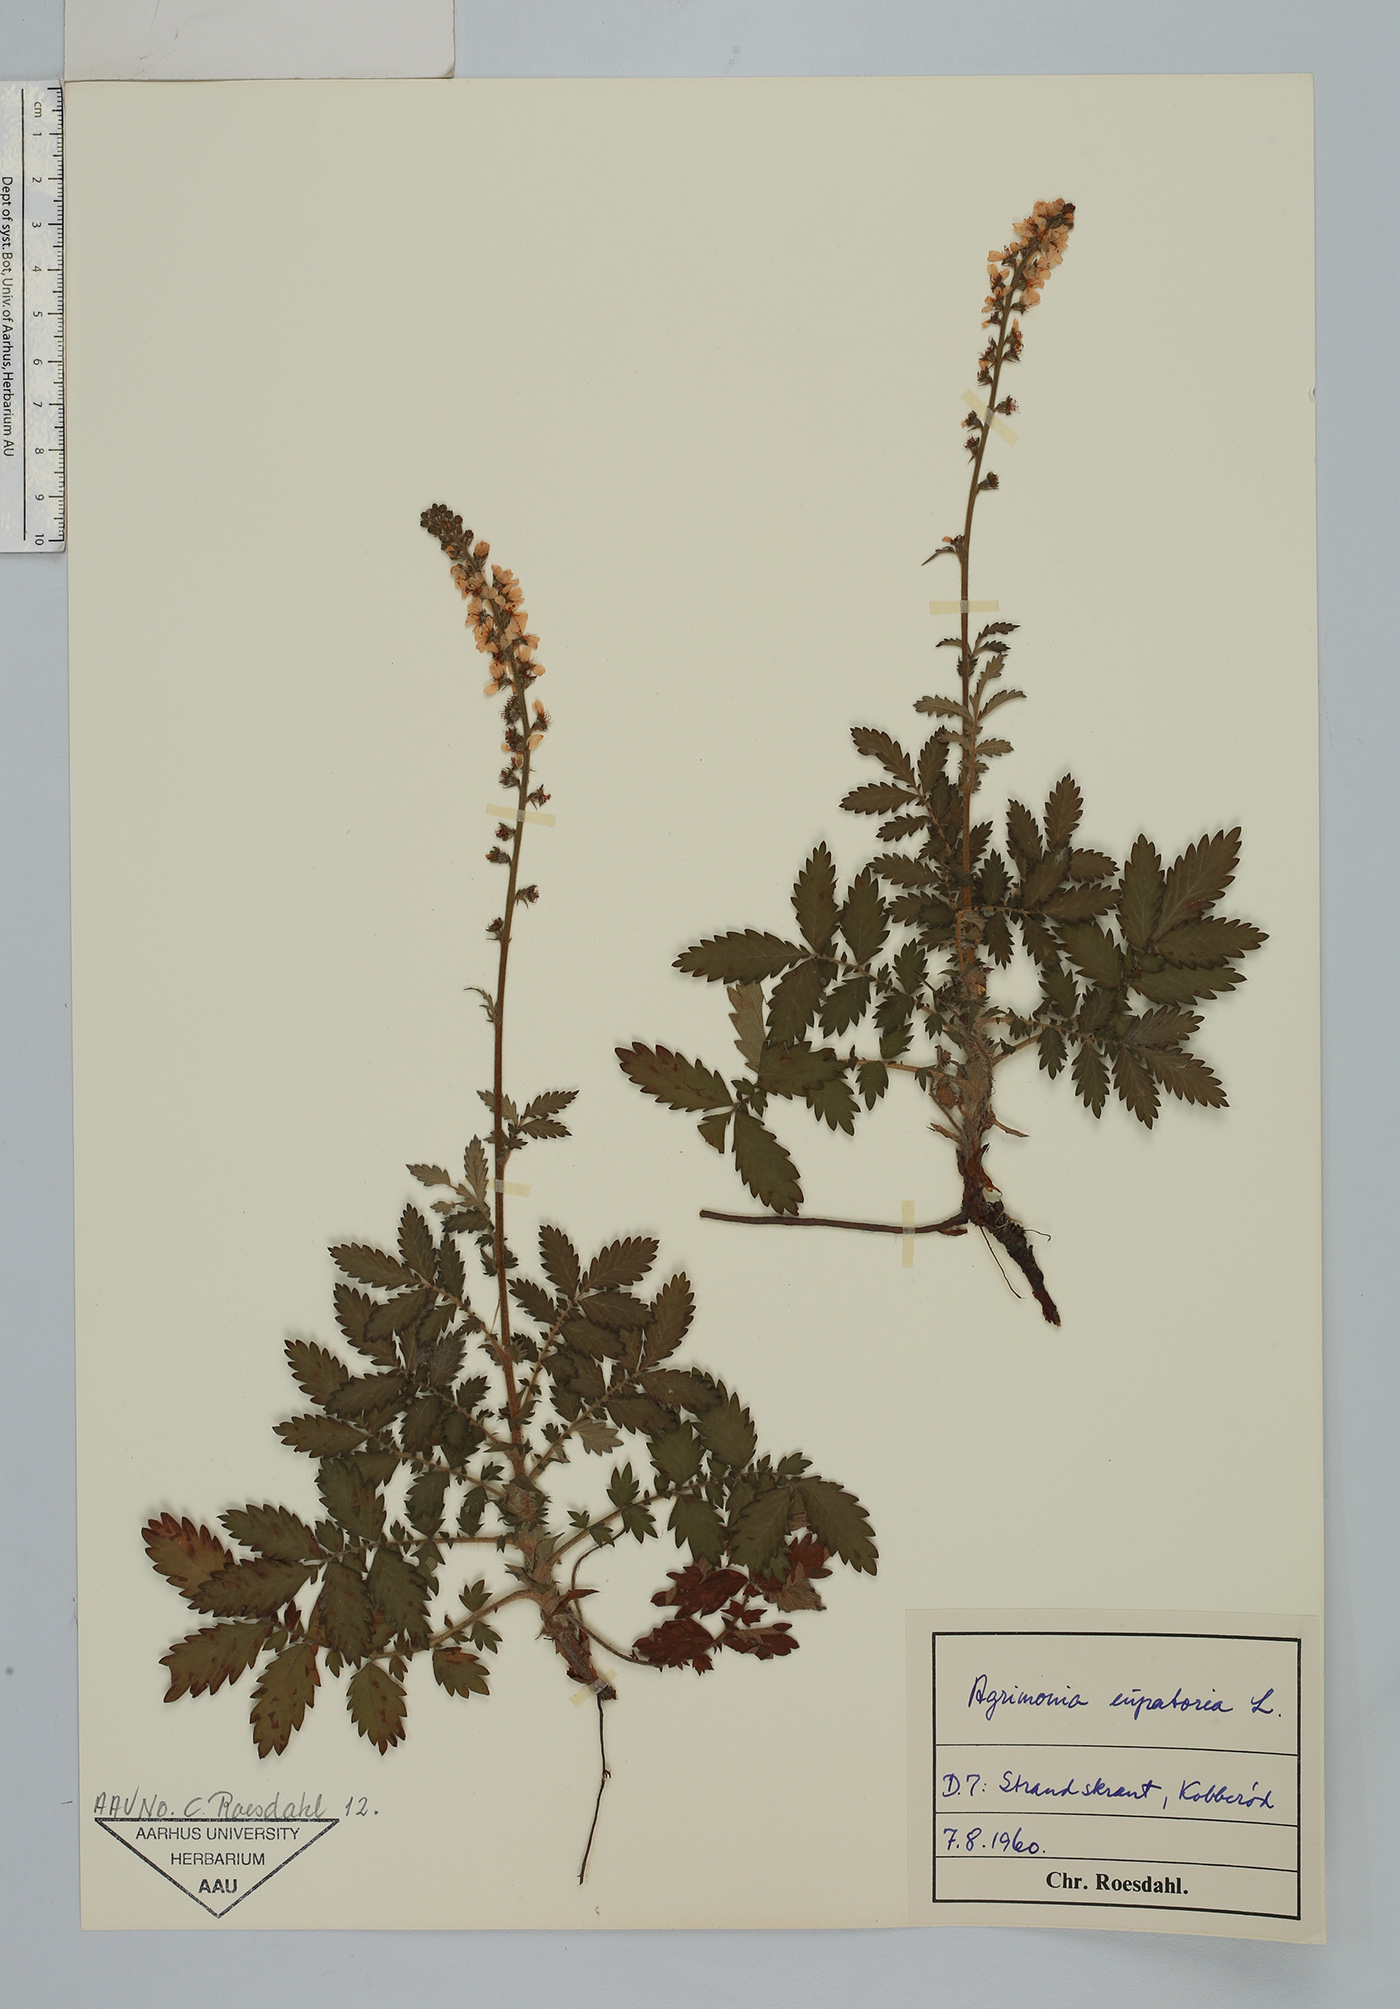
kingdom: Plantae
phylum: Tracheophyta
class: Magnoliopsida
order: Rosales
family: Rosaceae
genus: Agrimonia
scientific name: Agrimonia eupatoria
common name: Agrimony
